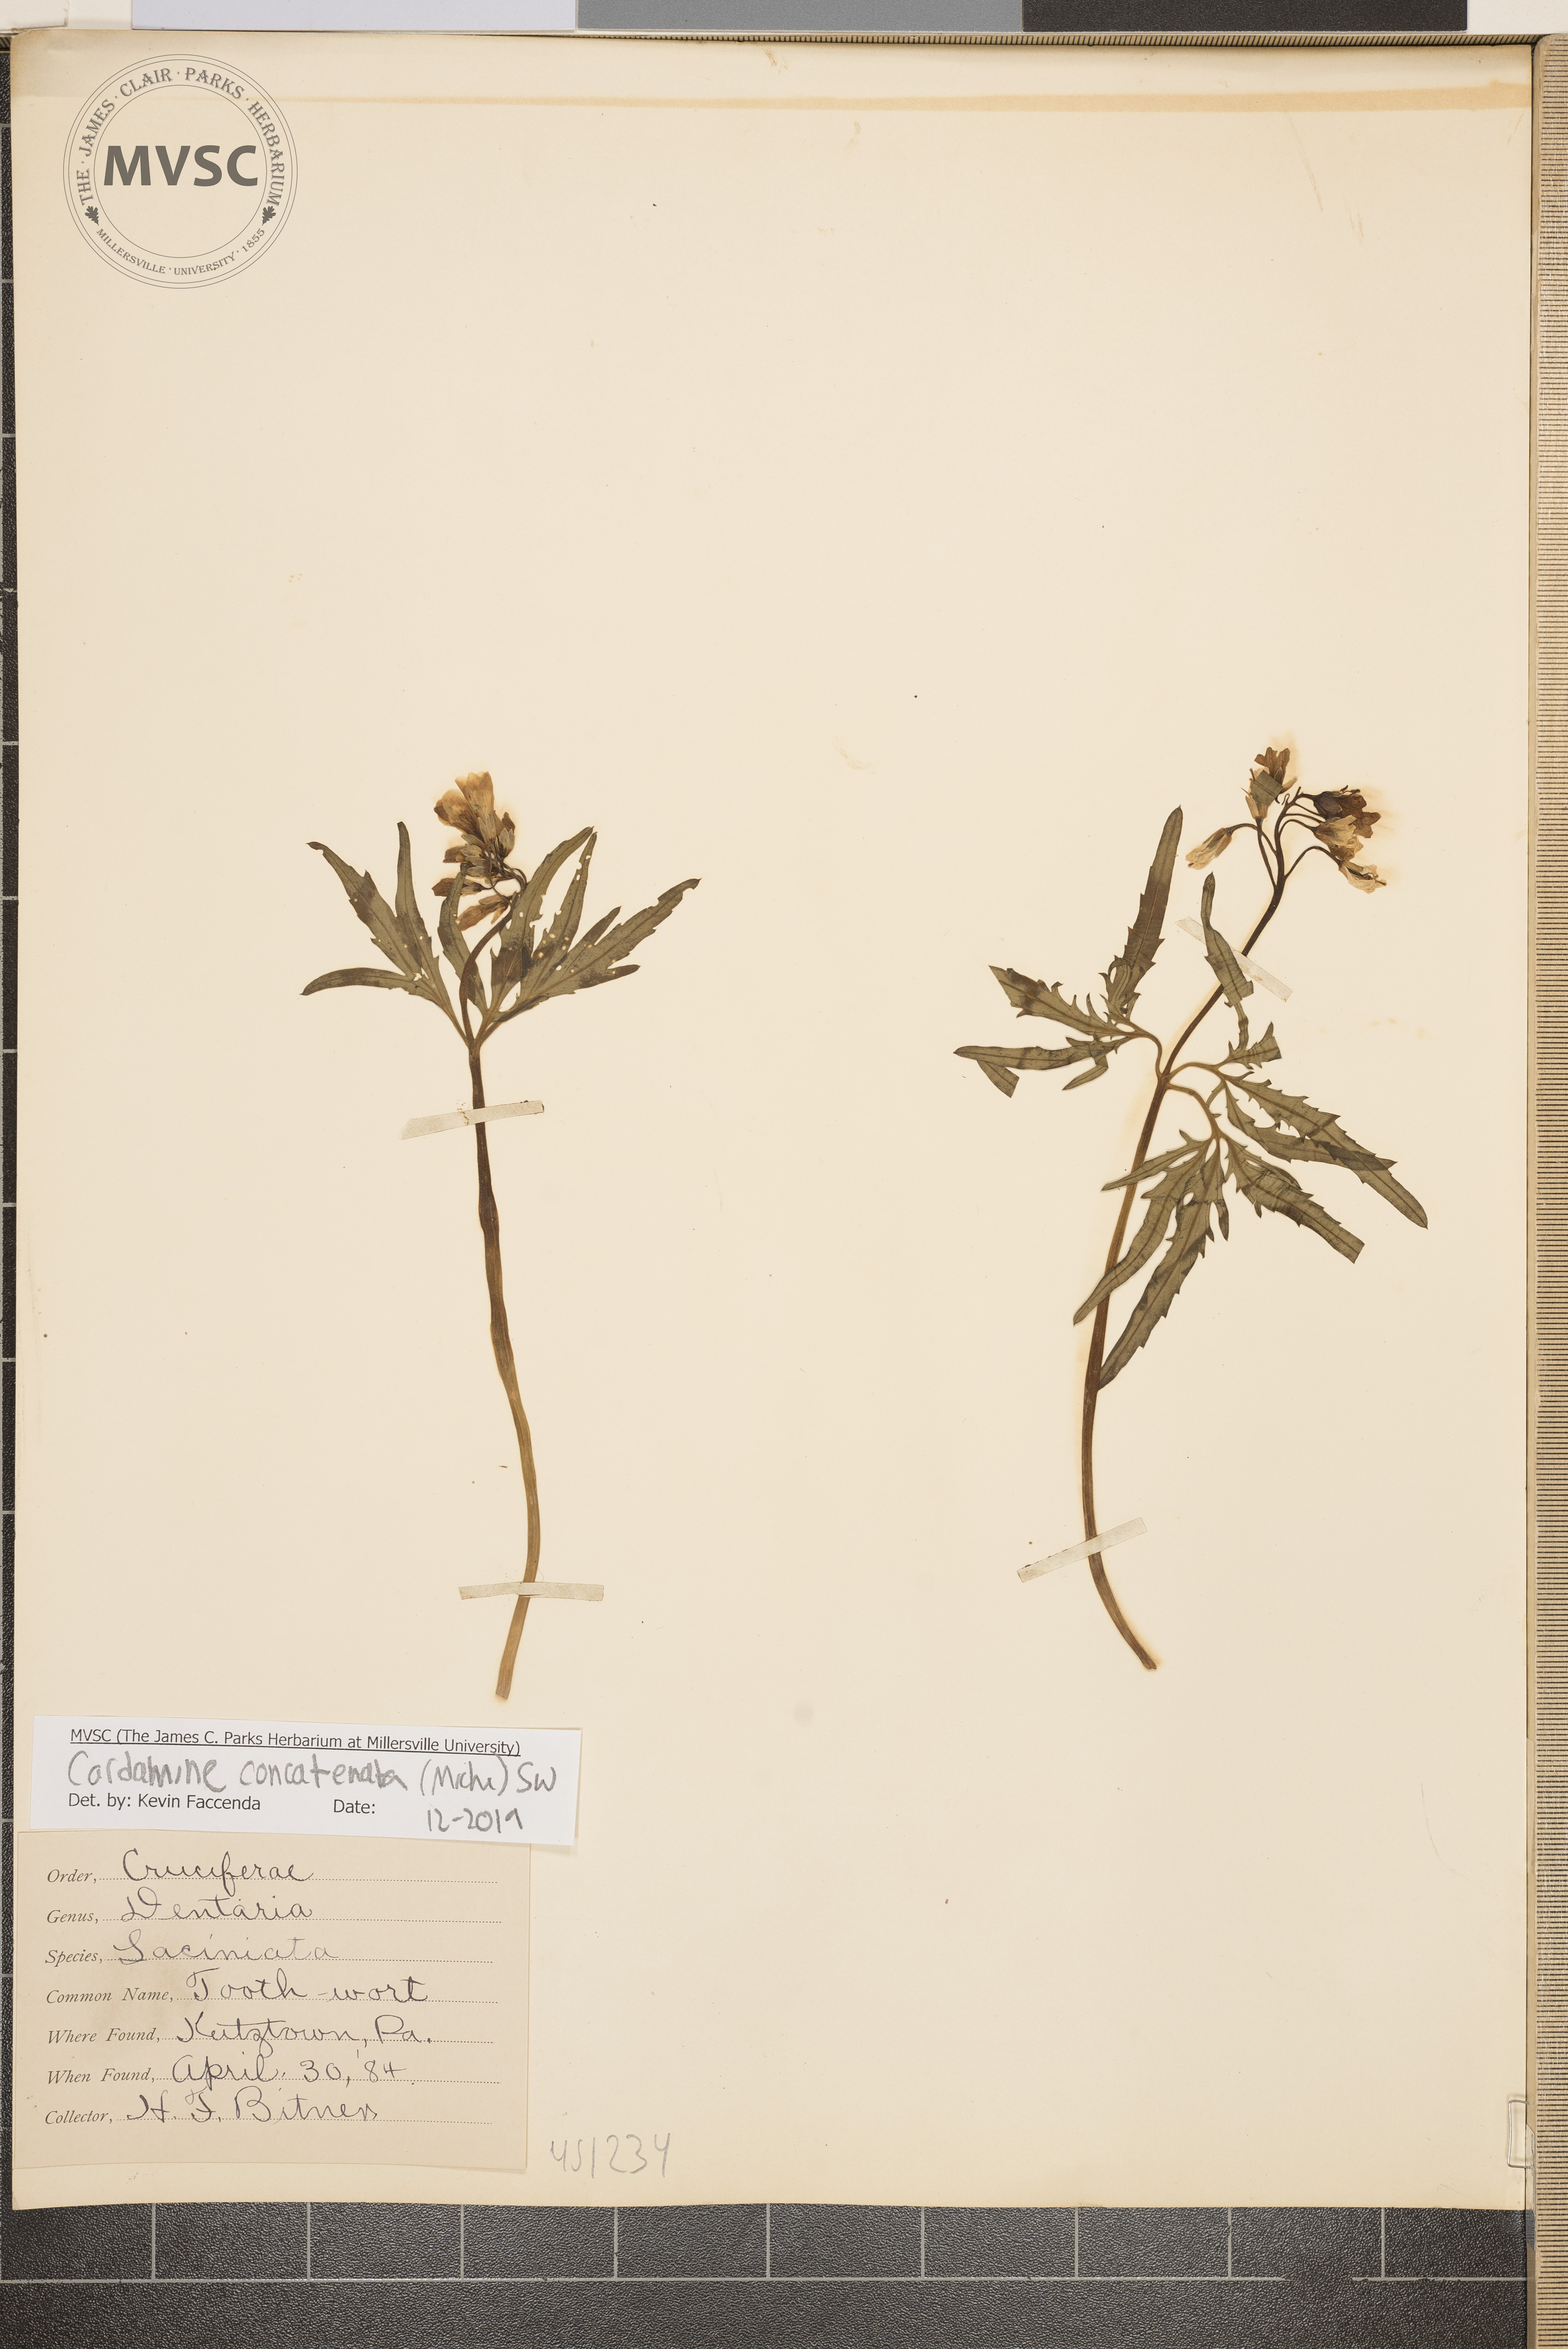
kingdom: Plantae
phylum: Tracheophyta
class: Magnoliopsida
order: Brassicales
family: Brassicaceae
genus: Cardamine
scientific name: Cardamine concatenata
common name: Cut-leaf toothcup
